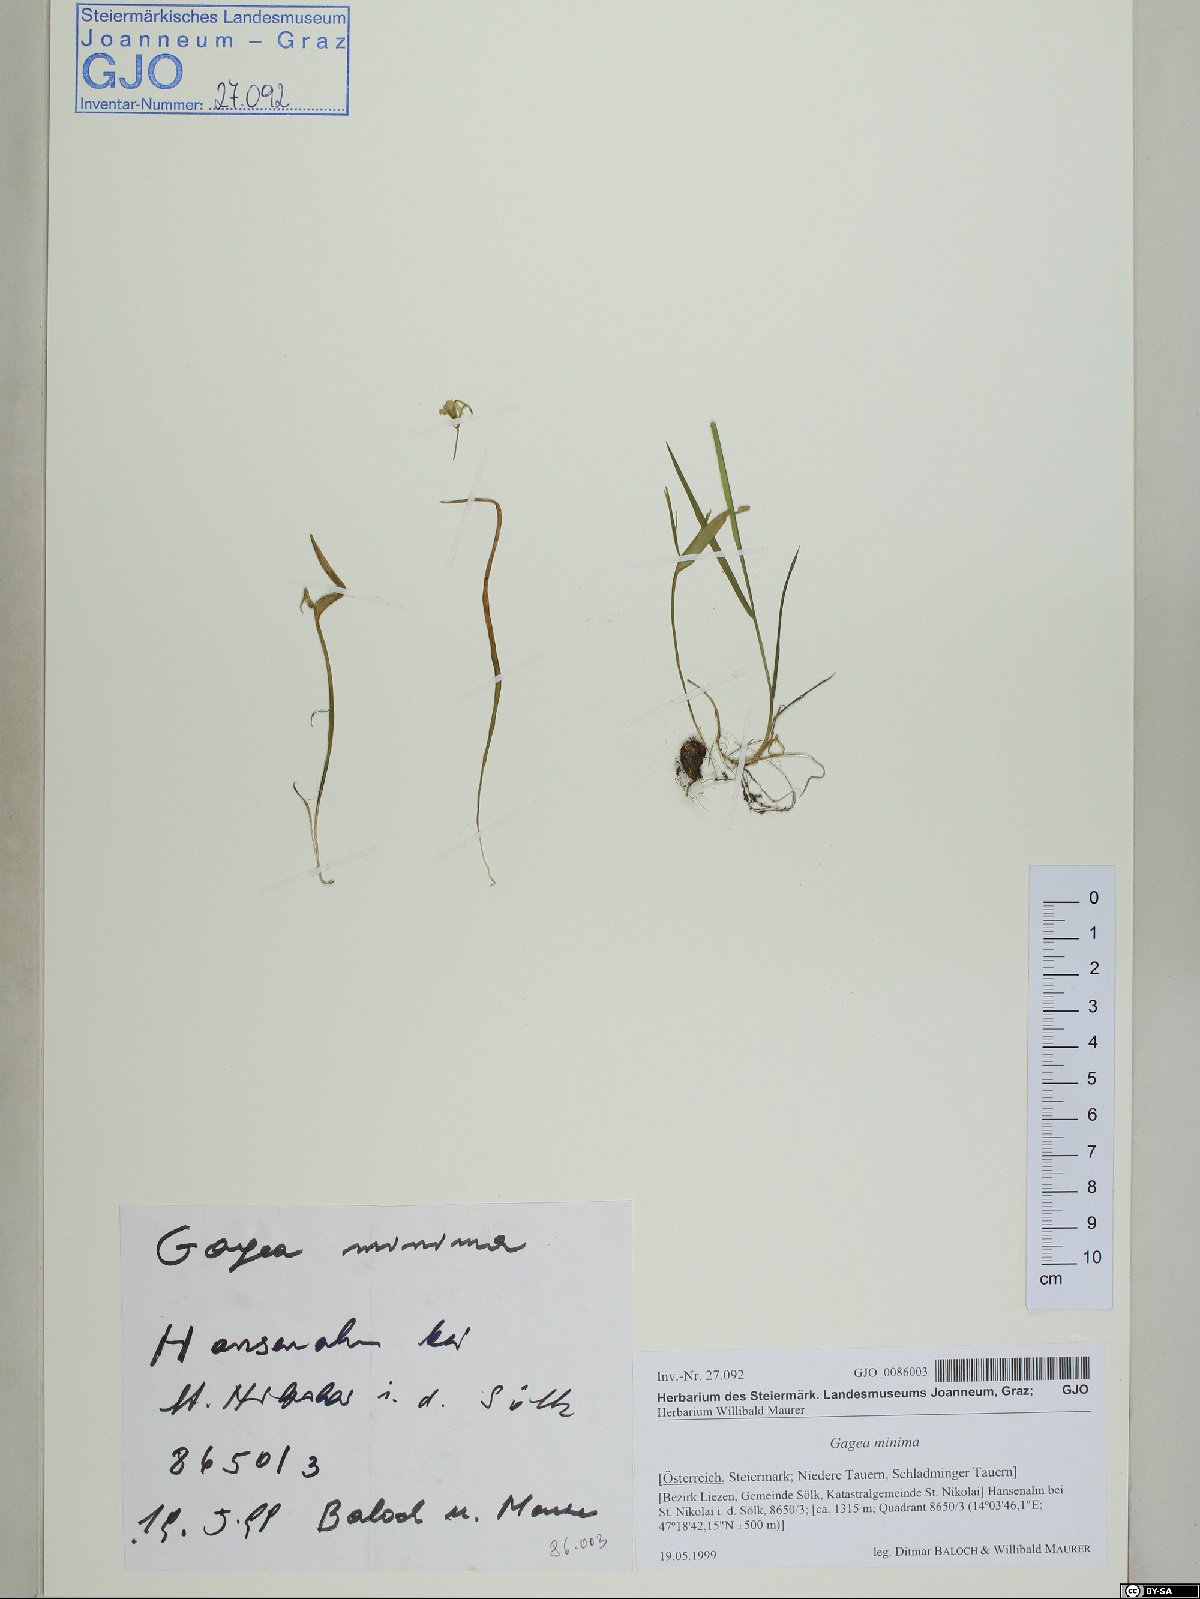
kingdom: Plantae
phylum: Tracheophyta
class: Liliopsida
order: Liliales
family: Liliaceae
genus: Gagea
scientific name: Gagea minima
